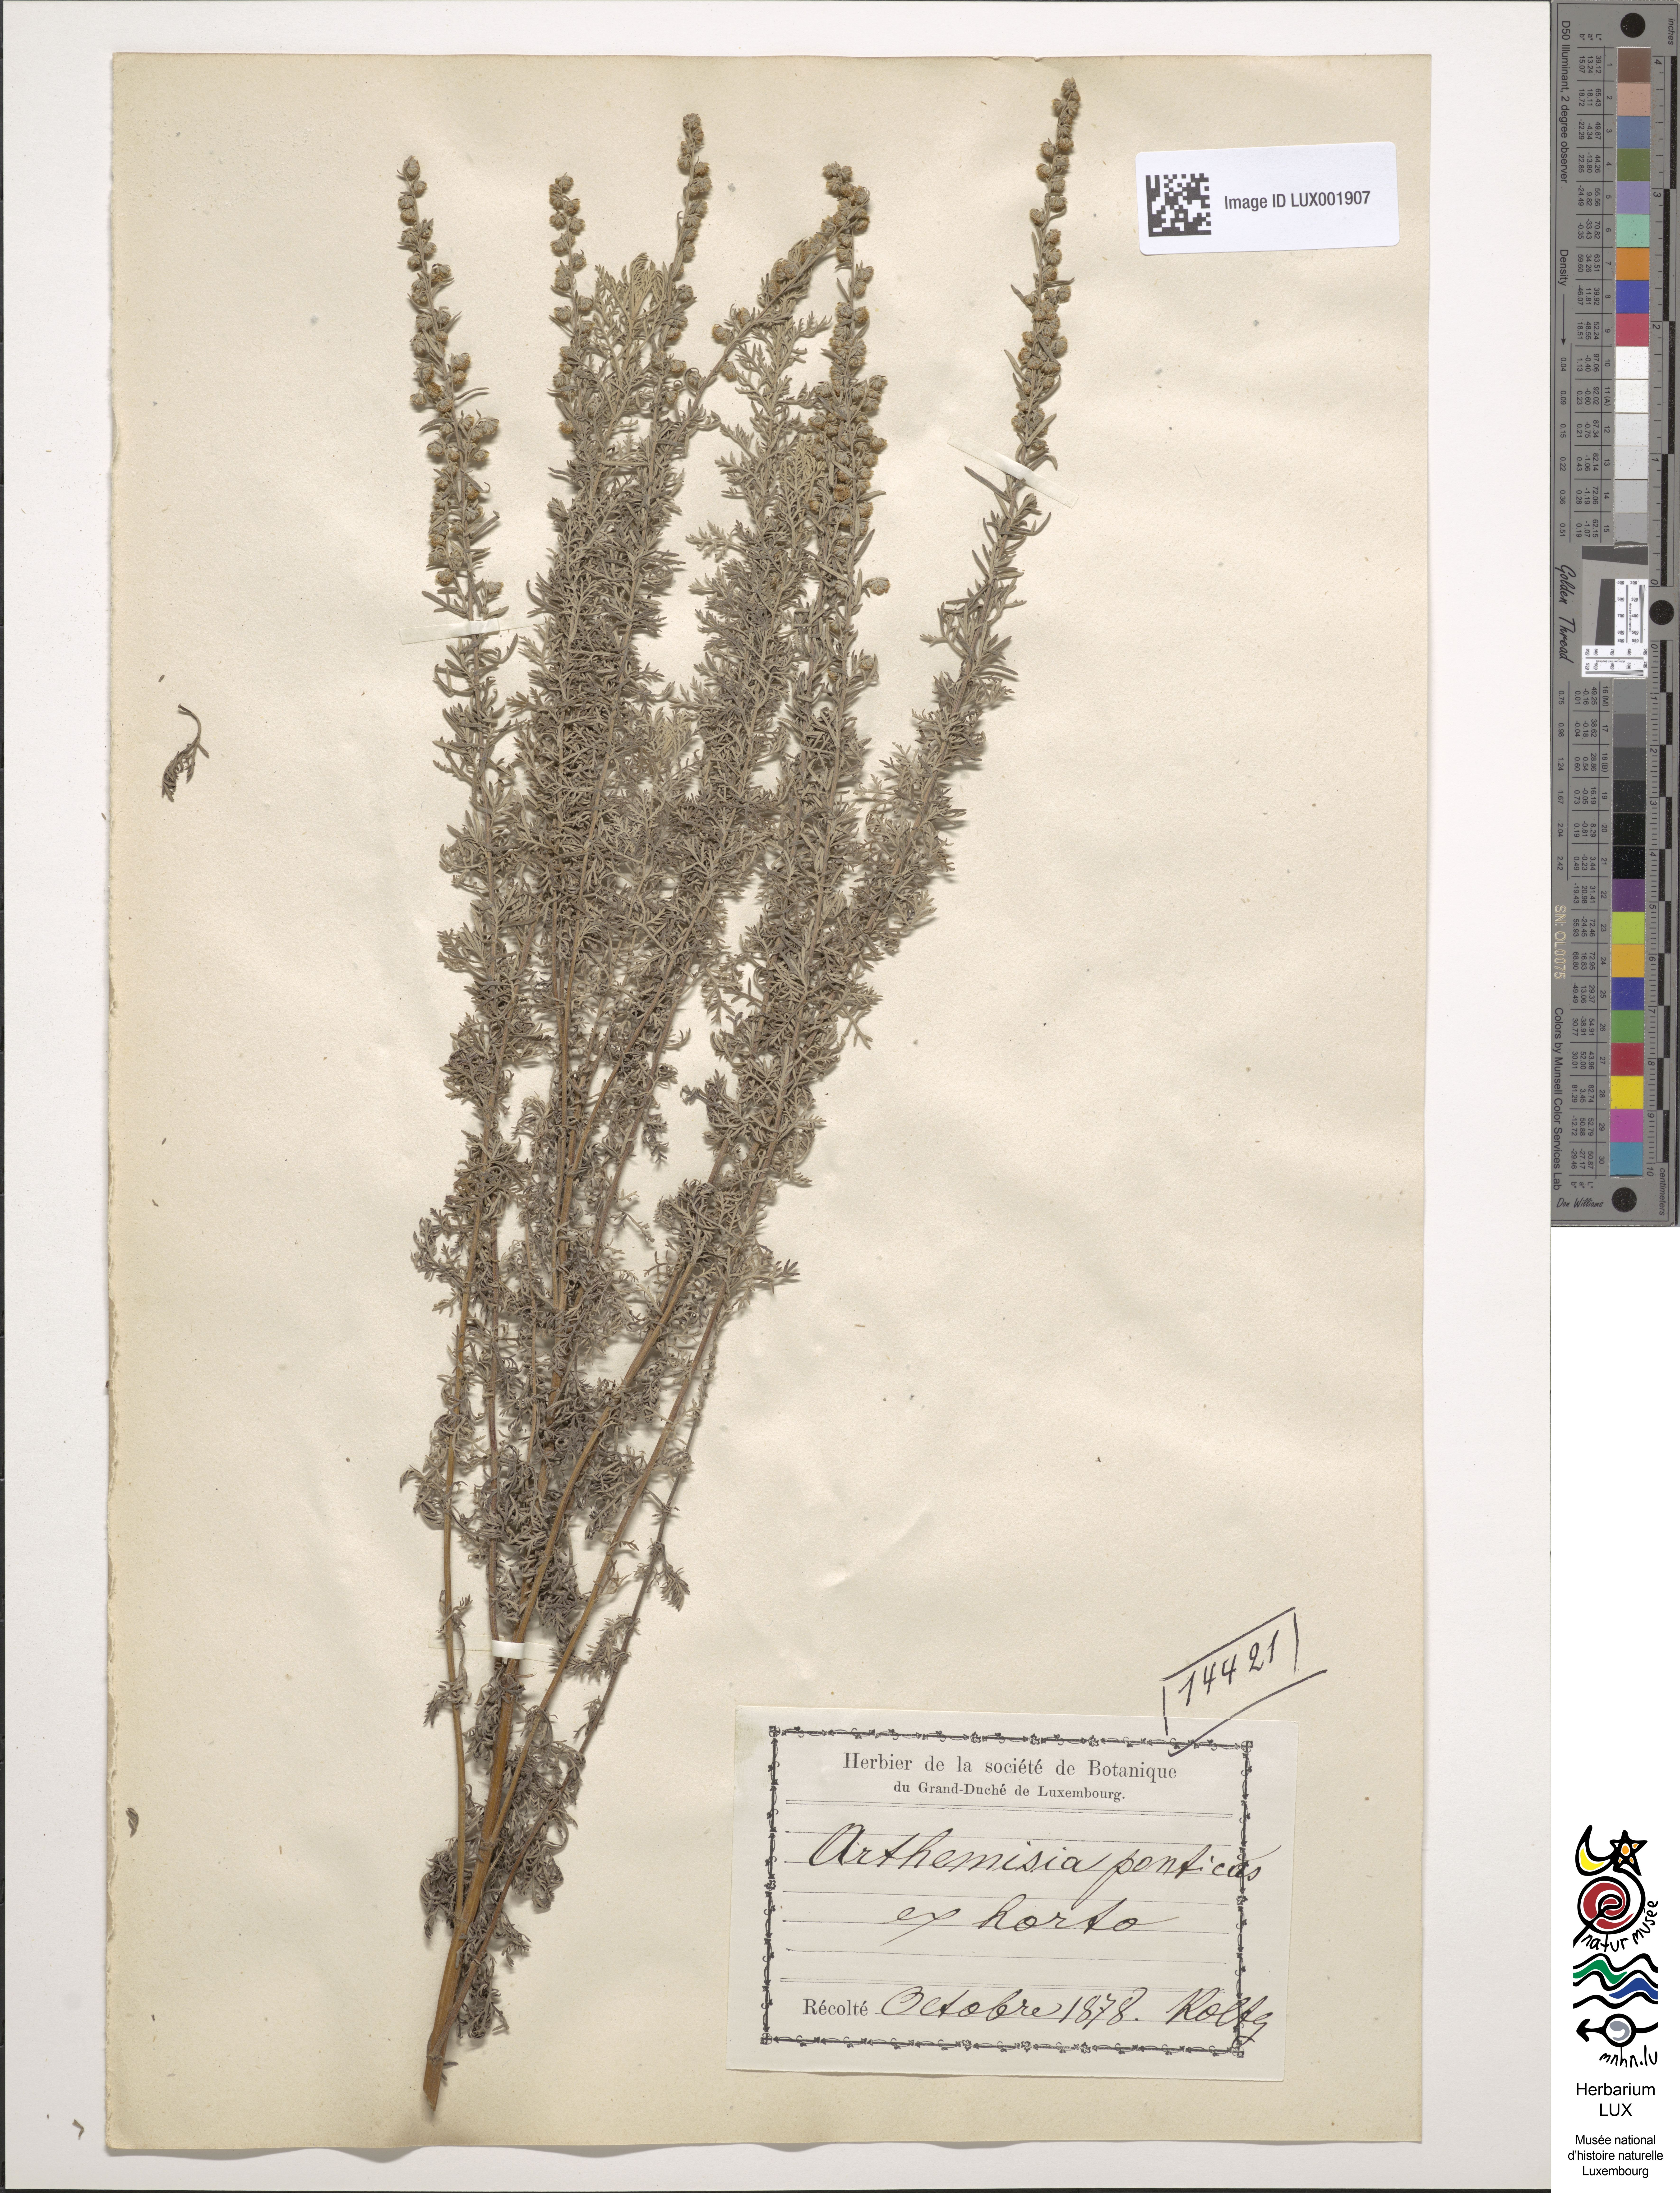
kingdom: Plantae
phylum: Tracheophyta
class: Magnoliopsida
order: Asterales
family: Asteraceae
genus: Artemisia
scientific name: Artemisia pontica
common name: Roman wormwood
